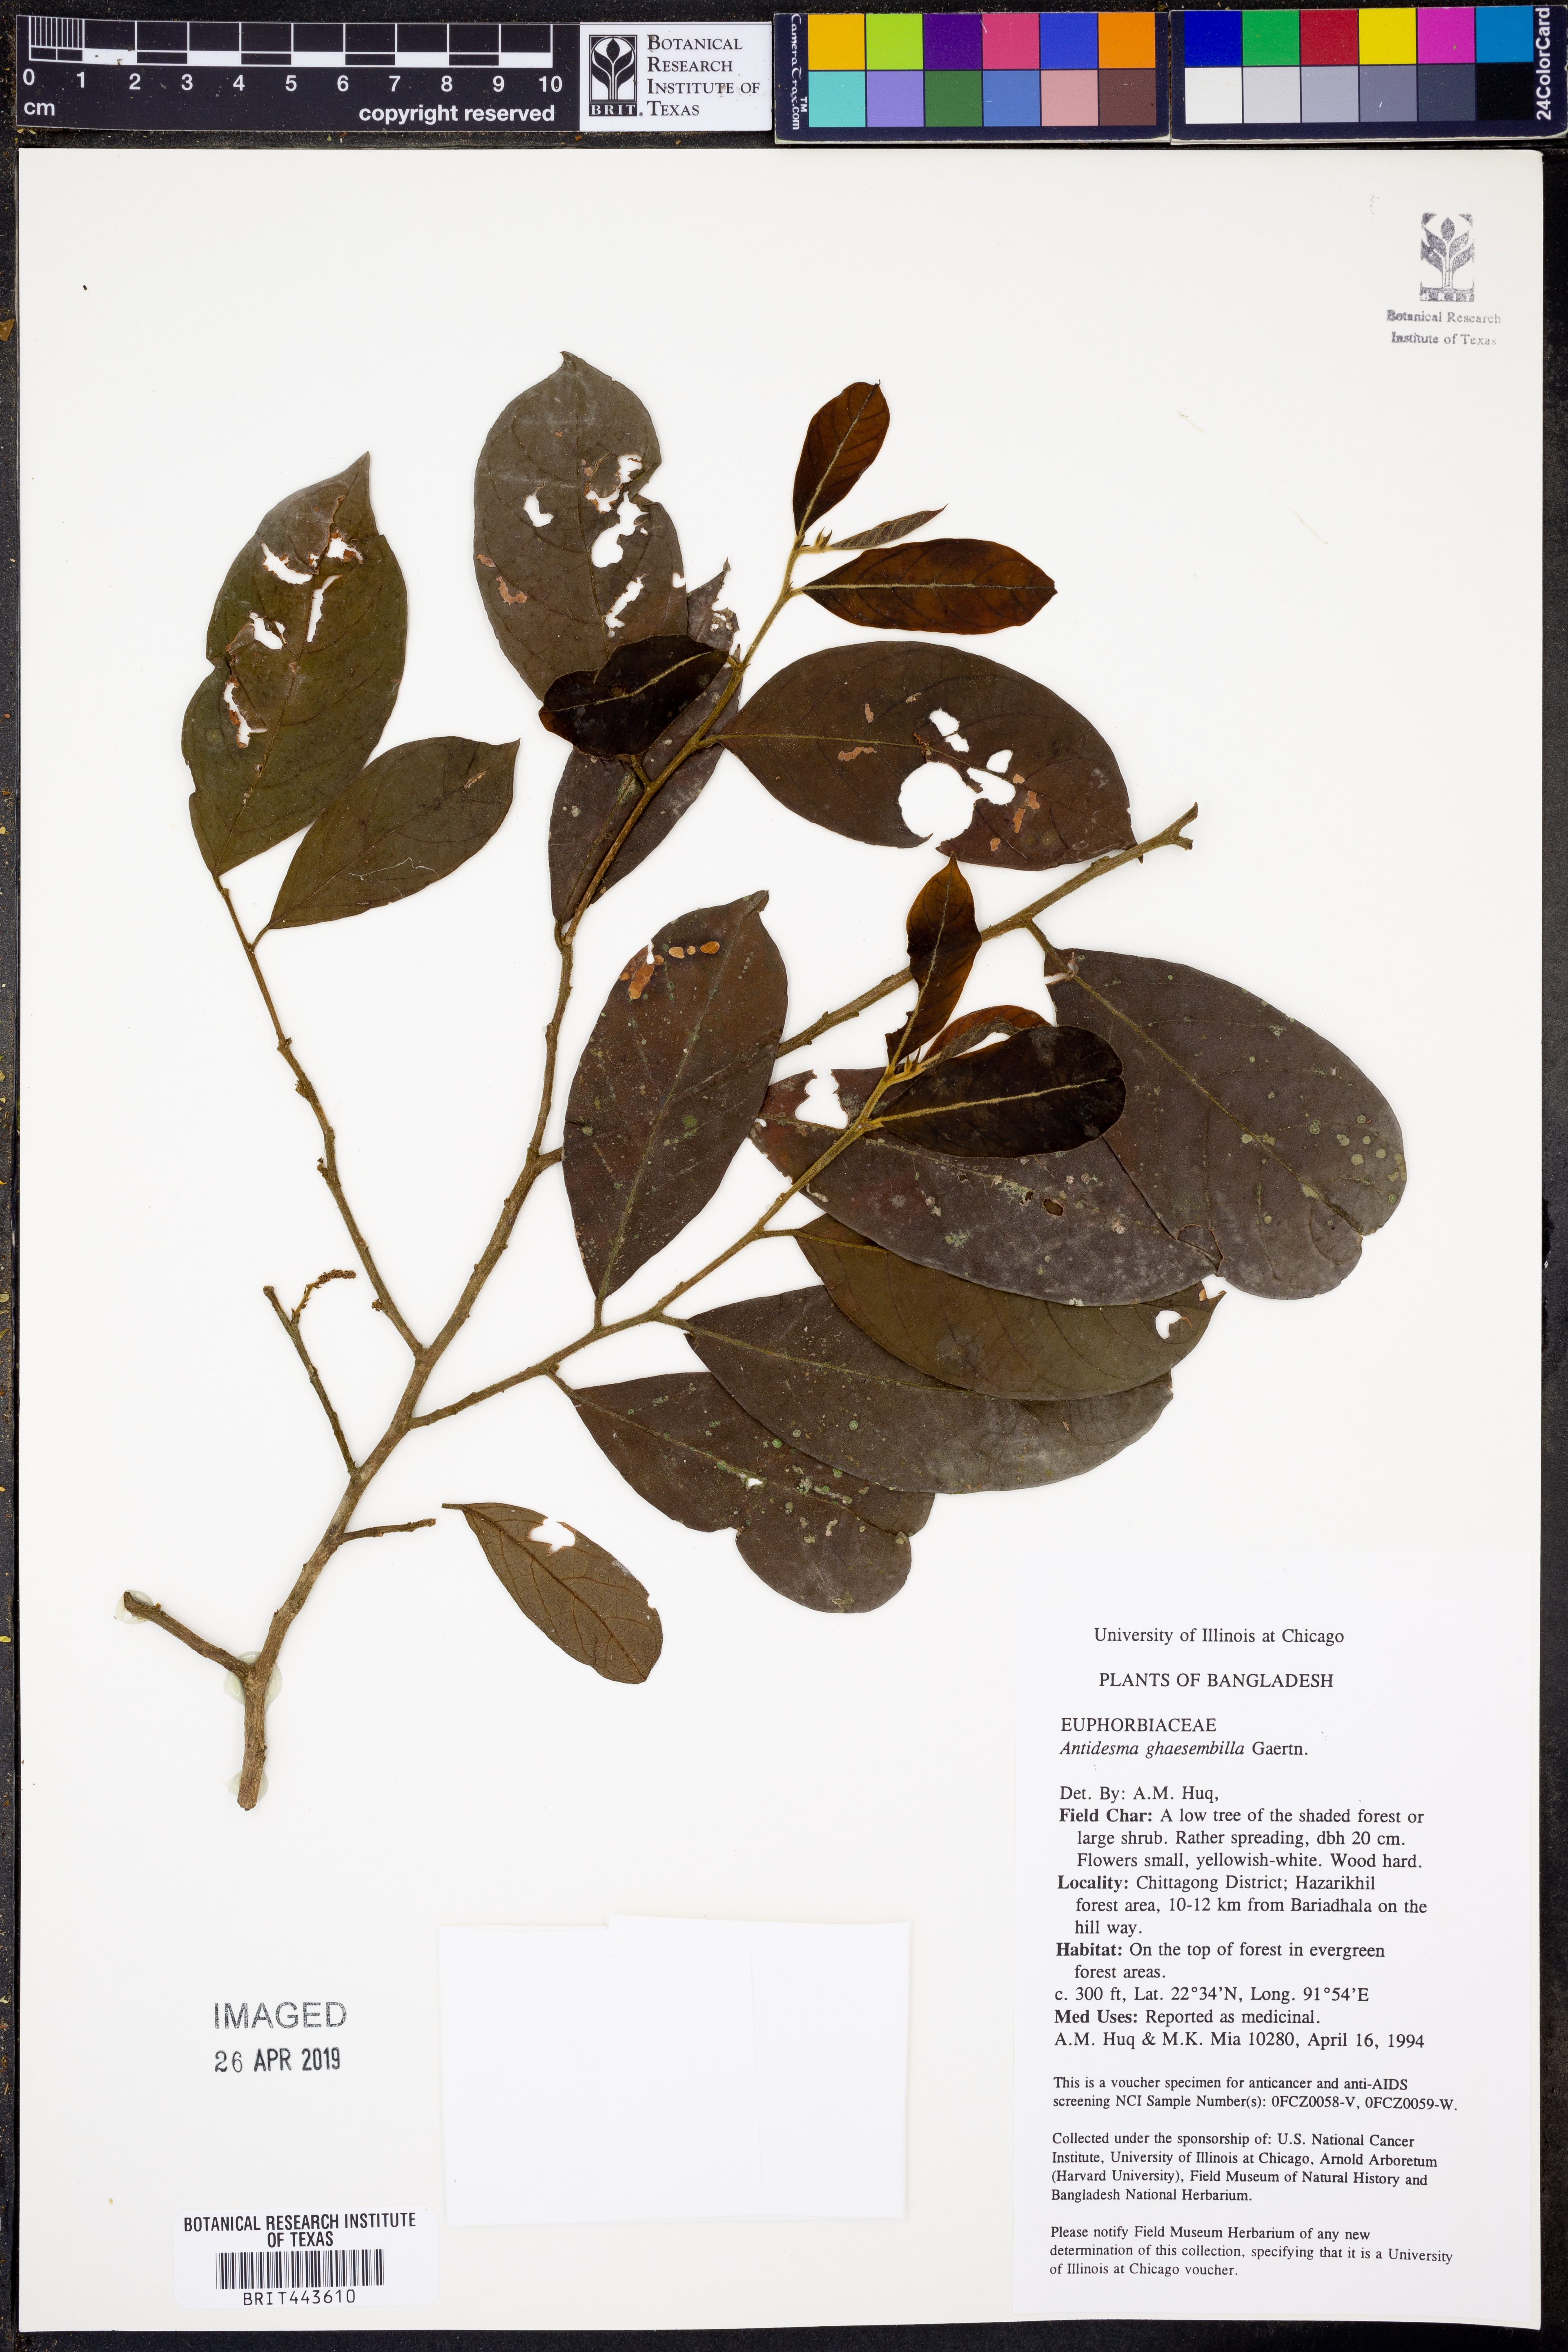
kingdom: Plantae
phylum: Tracheophyta
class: Magnoliopsida
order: Malpighiales
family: Phyllanthaceae
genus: Antidesma
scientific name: Antidesma ghaesembilla
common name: Black currant-tree
